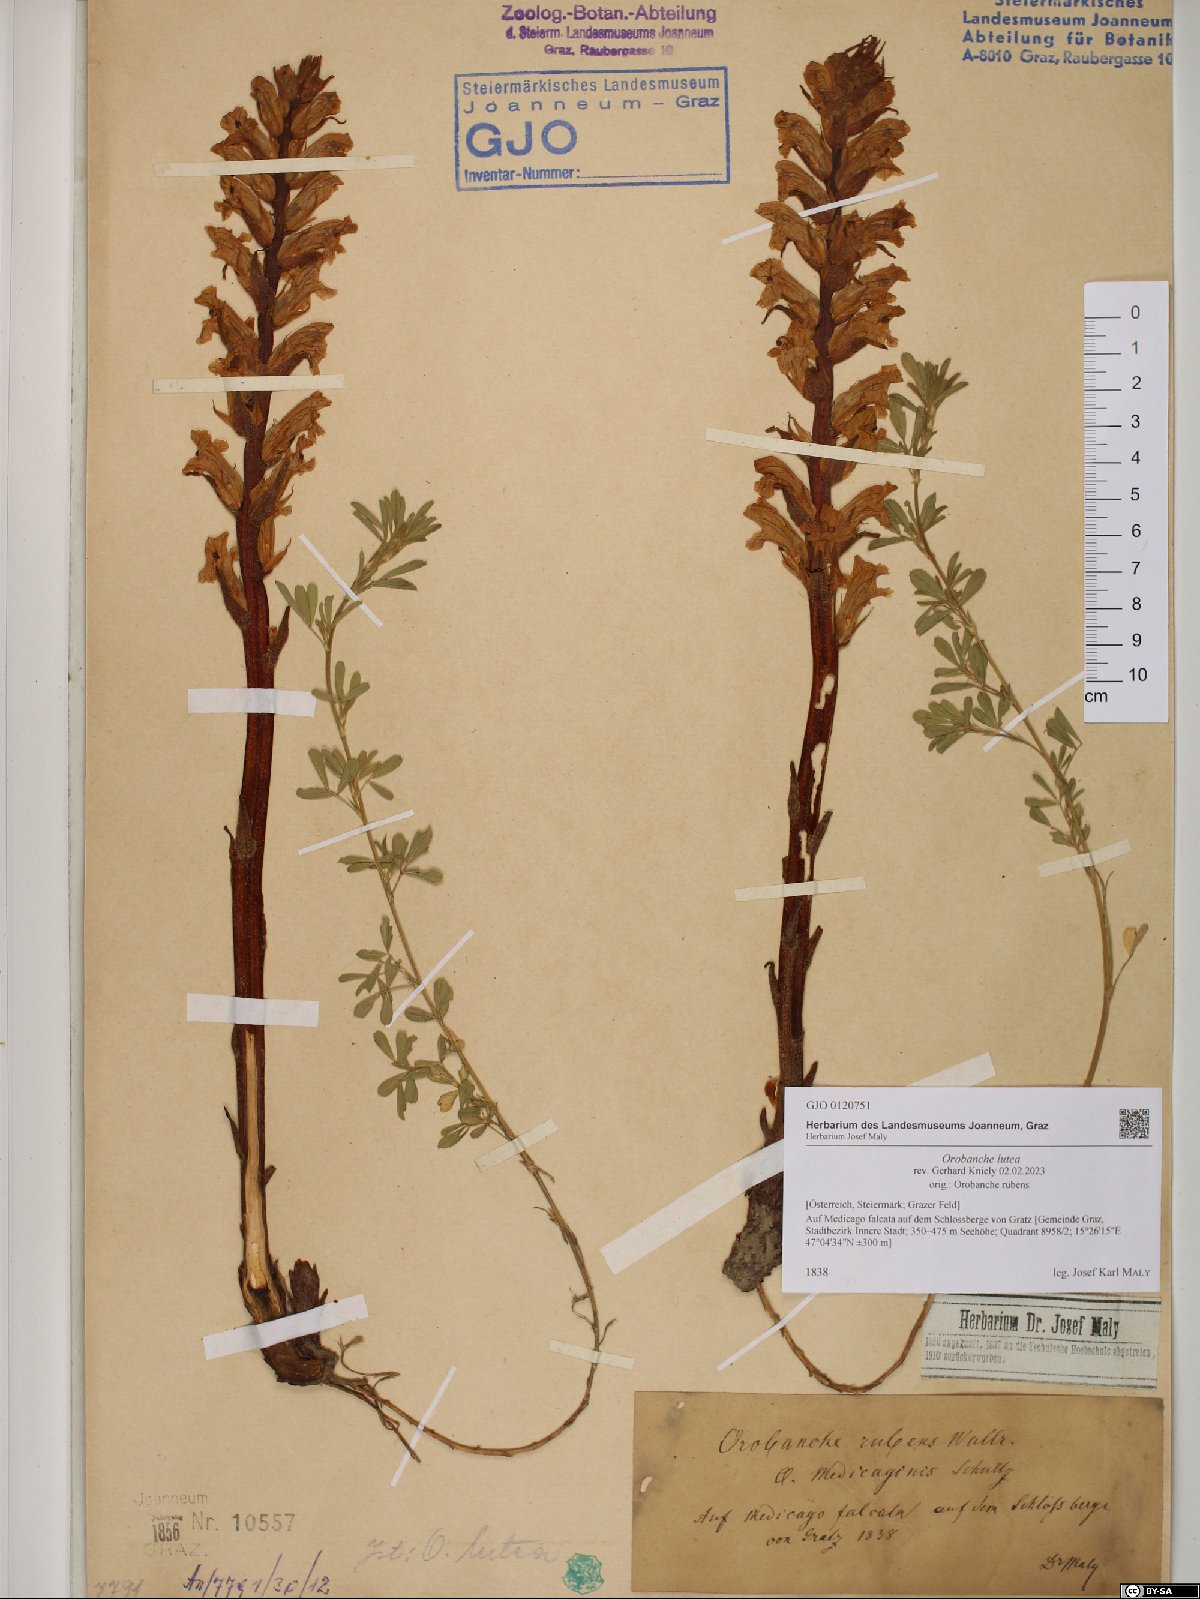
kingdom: Plantae
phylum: Tracheophyta
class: Magnoliopsida
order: Lamiales
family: Orobanchaceae
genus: Orobanche
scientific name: Orobanche lutea
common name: Yellow broomrape
